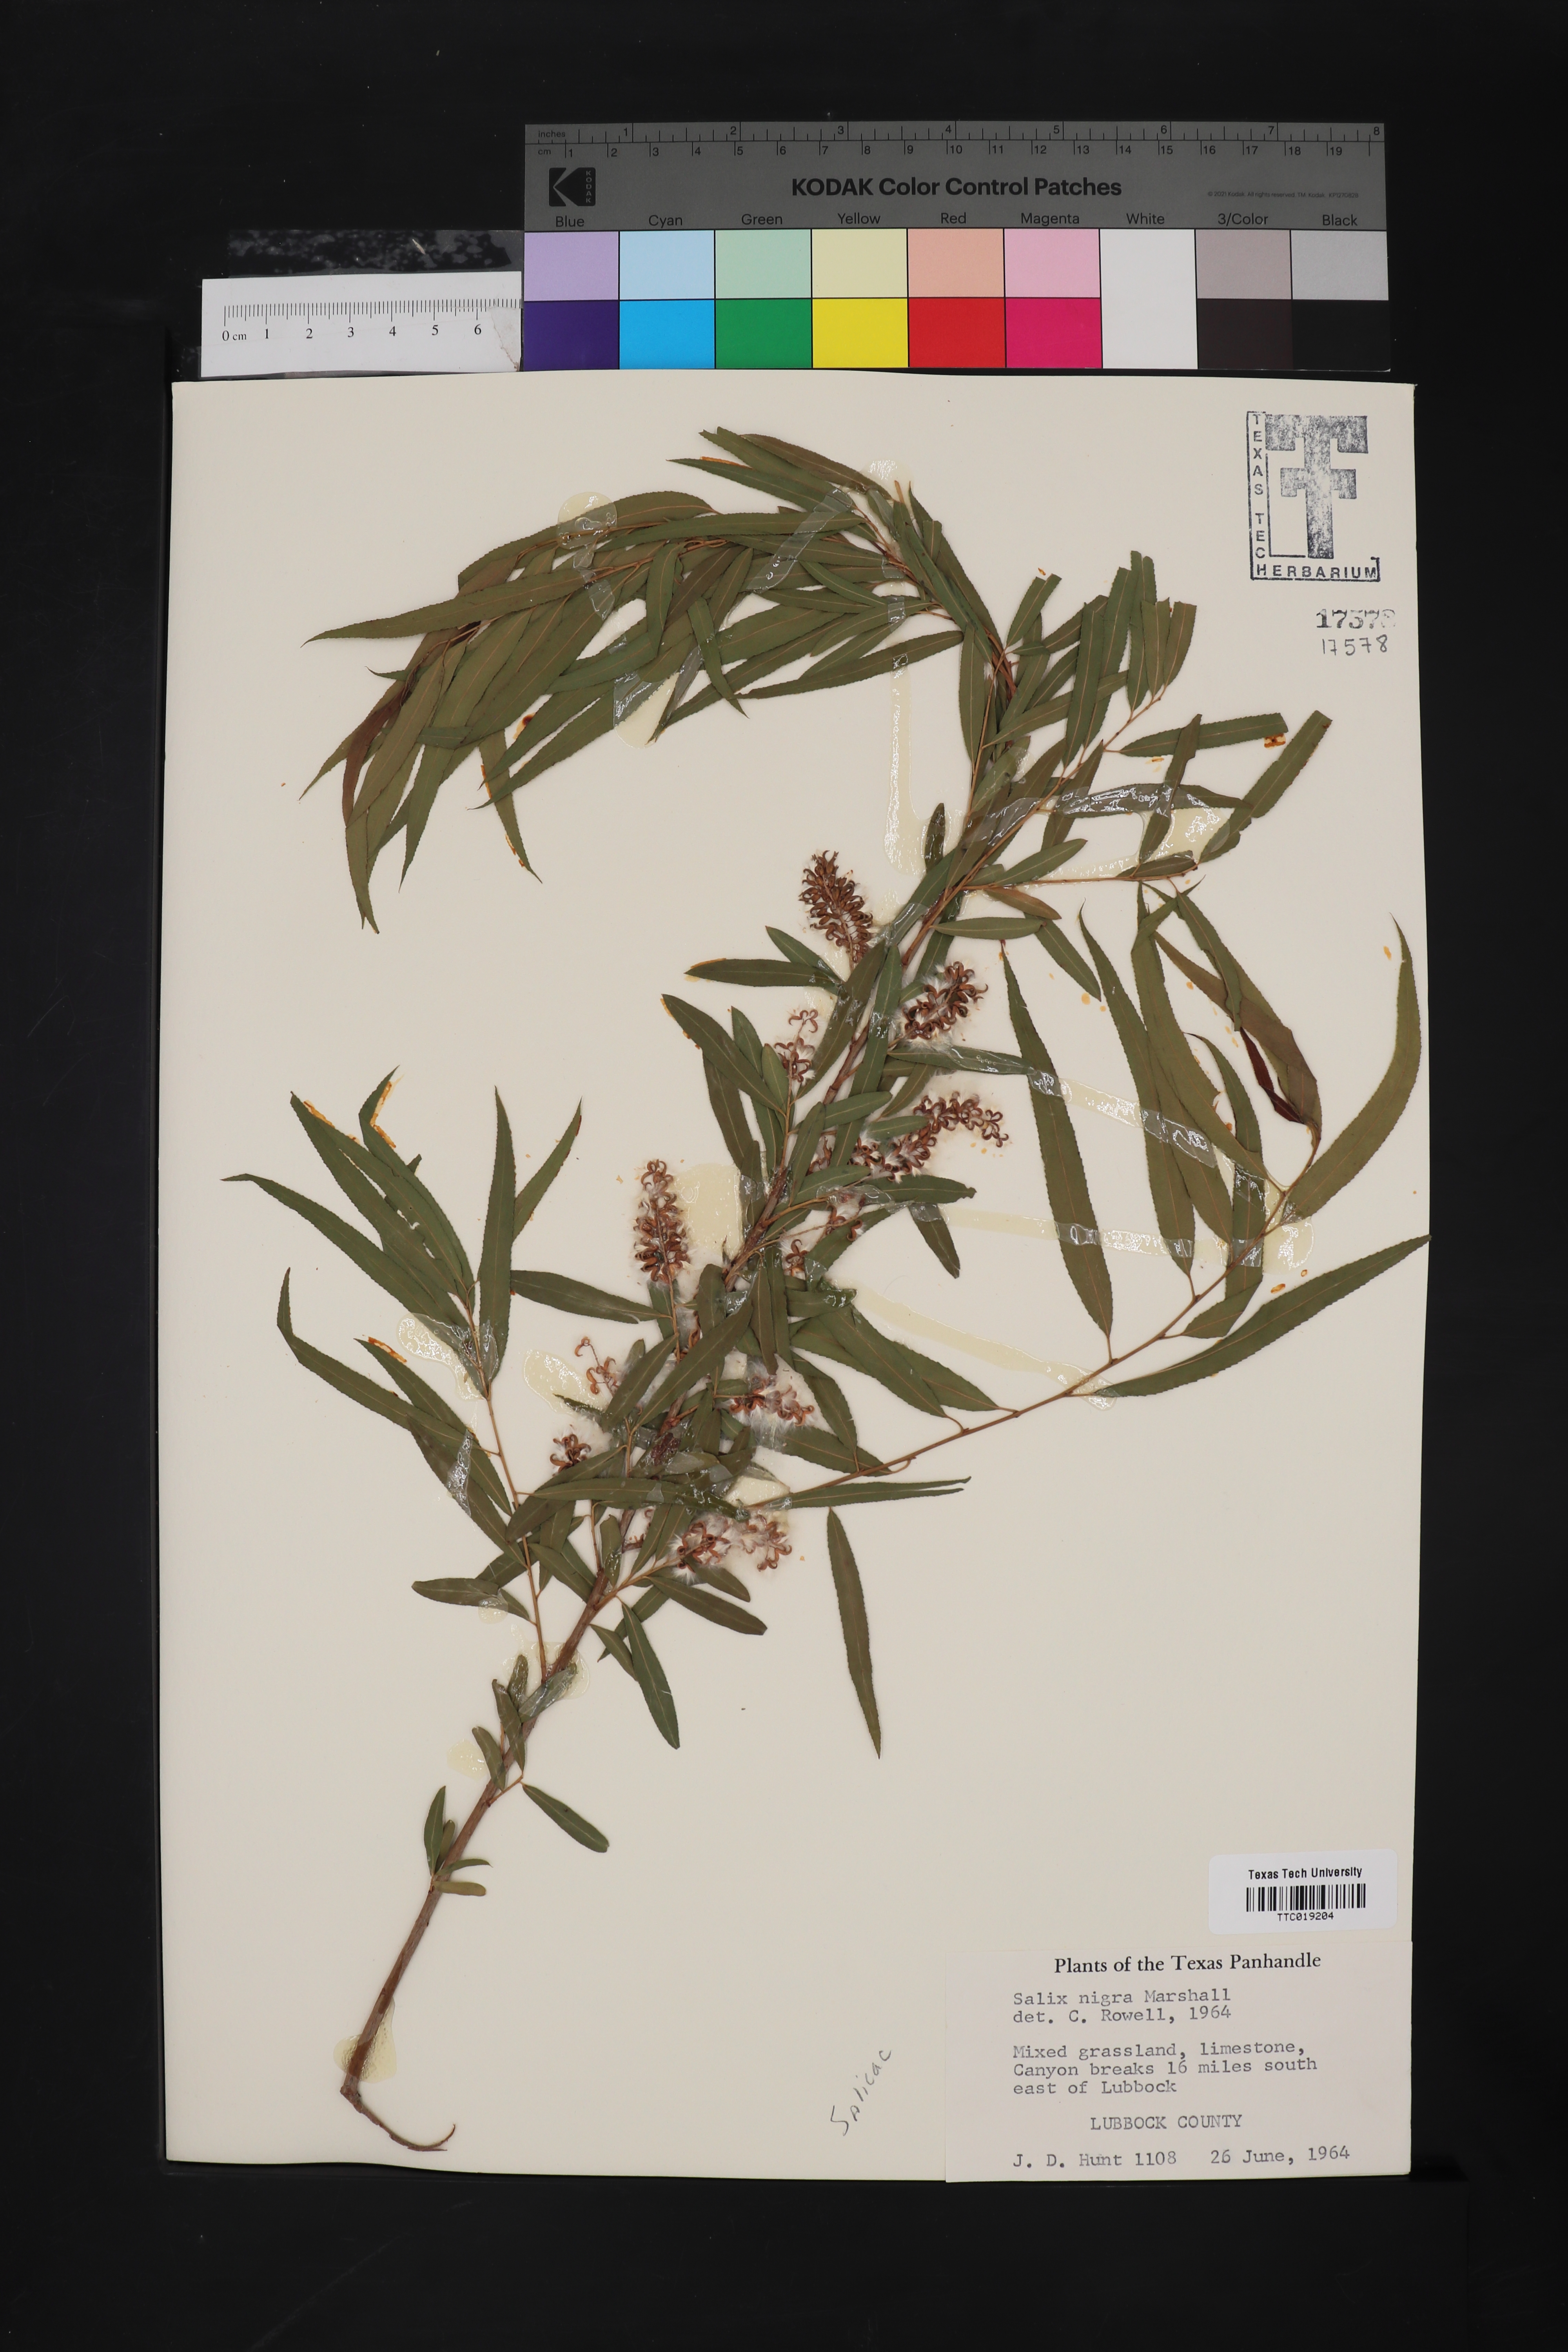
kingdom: Plantae
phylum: Tracheophyta
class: Magnoliopsida
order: Malpighiales
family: Salicaceae
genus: Salix
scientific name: Salix nigra
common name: Black willow
